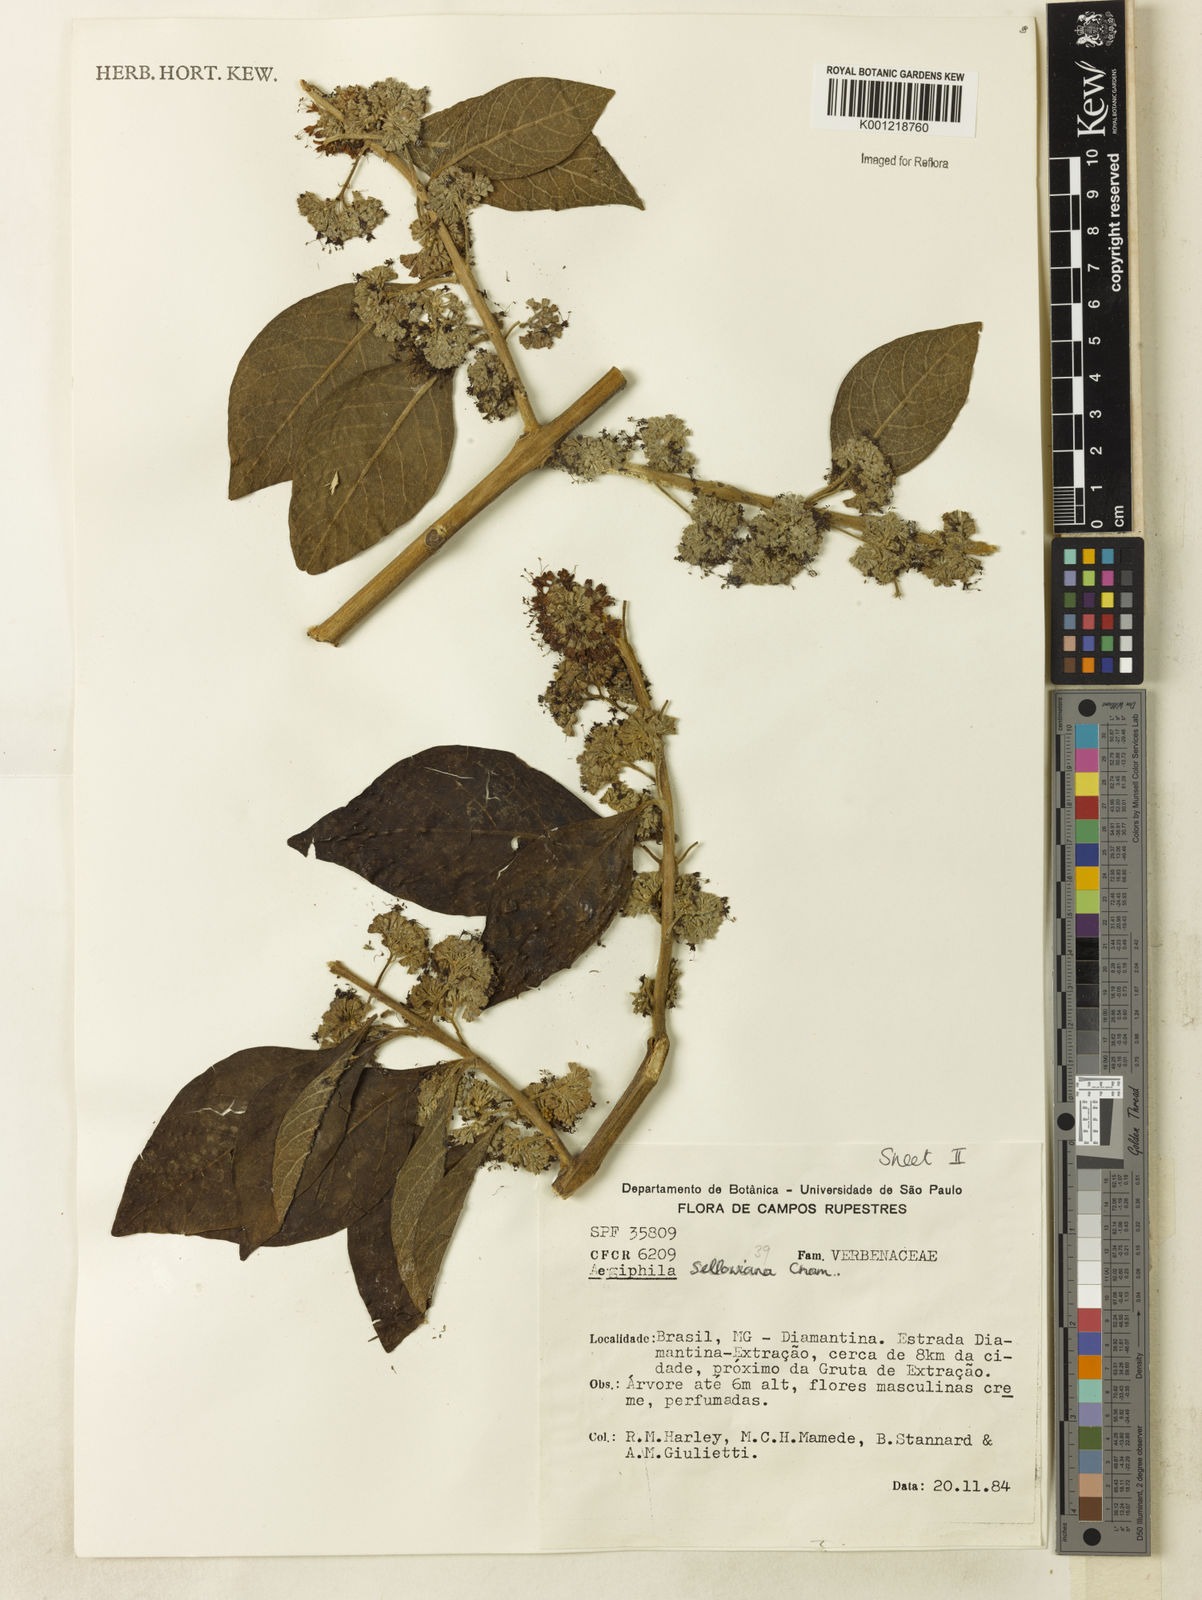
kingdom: Plantae
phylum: Tracheophyta
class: Magnoliopsida
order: Lamiales
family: Lamiaceae
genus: Aegiphila
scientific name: Aegiphila verticillata
